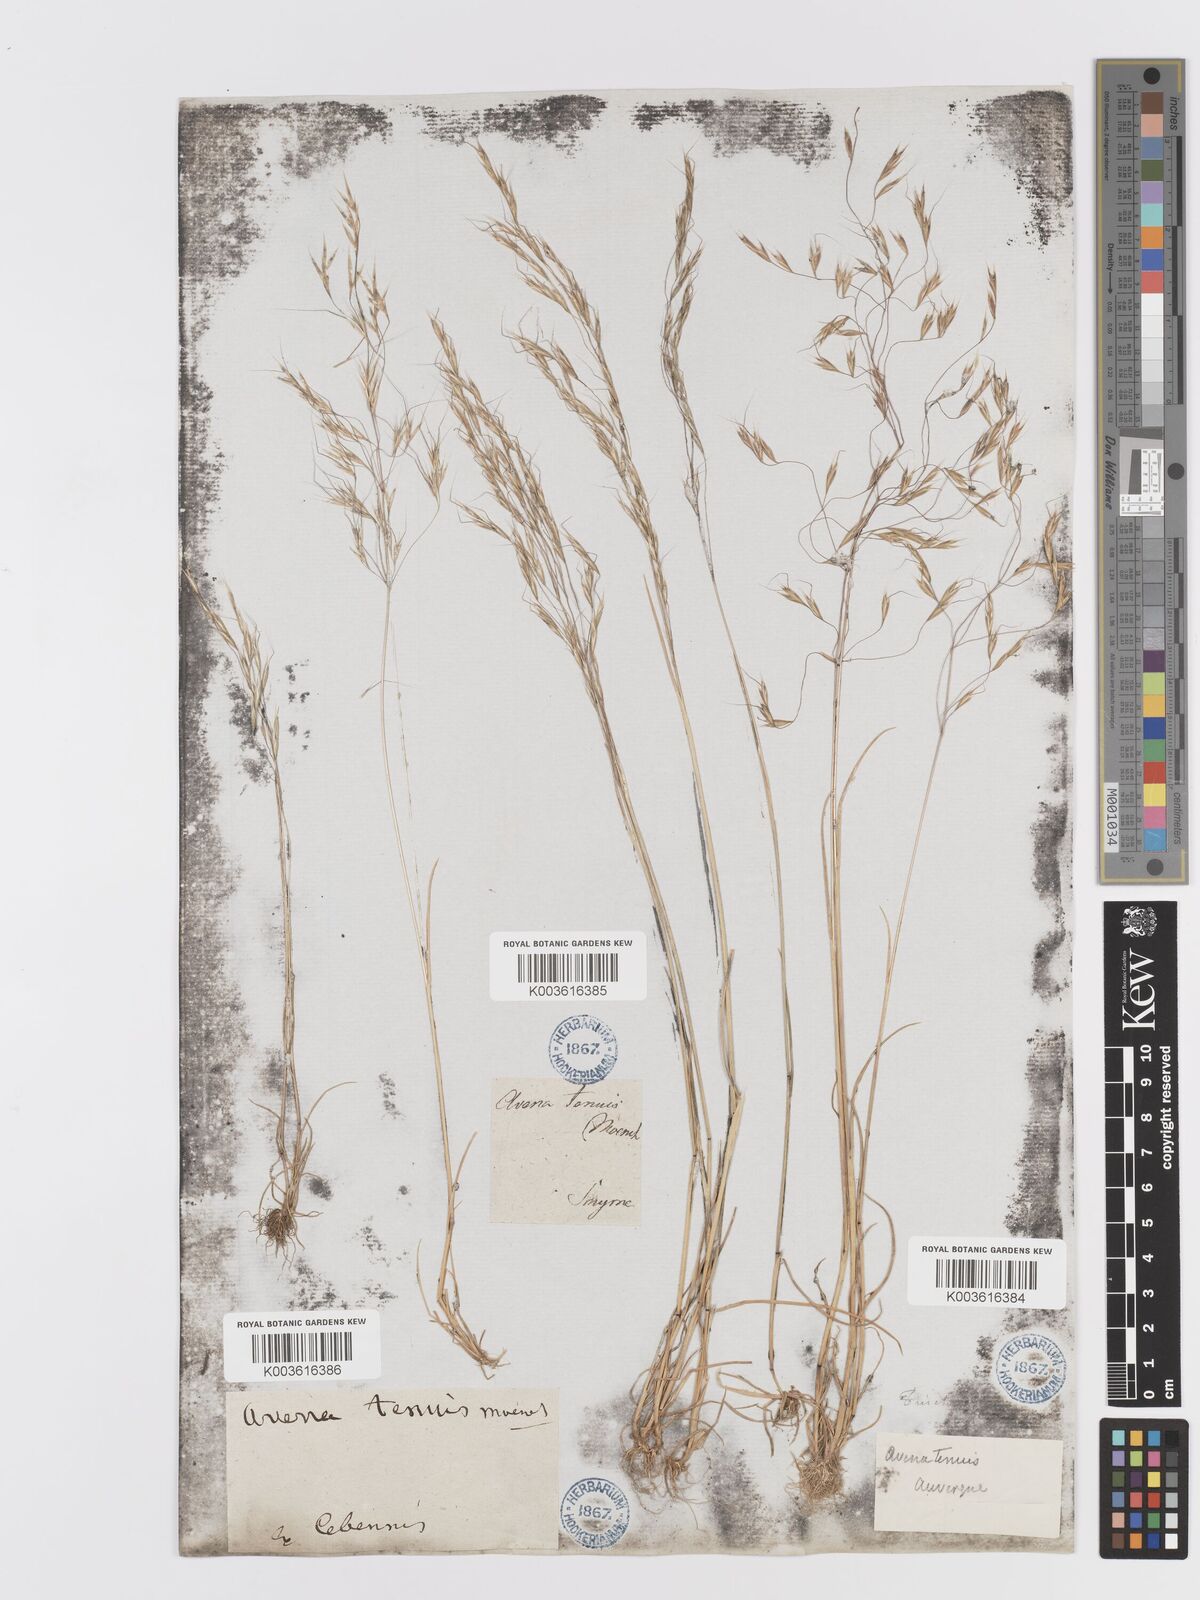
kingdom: Plantae
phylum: Tracheophyta
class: Liliopsida
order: Poales
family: Poaceae
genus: Ventenata
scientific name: Ventenata dubia
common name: North africa grass
